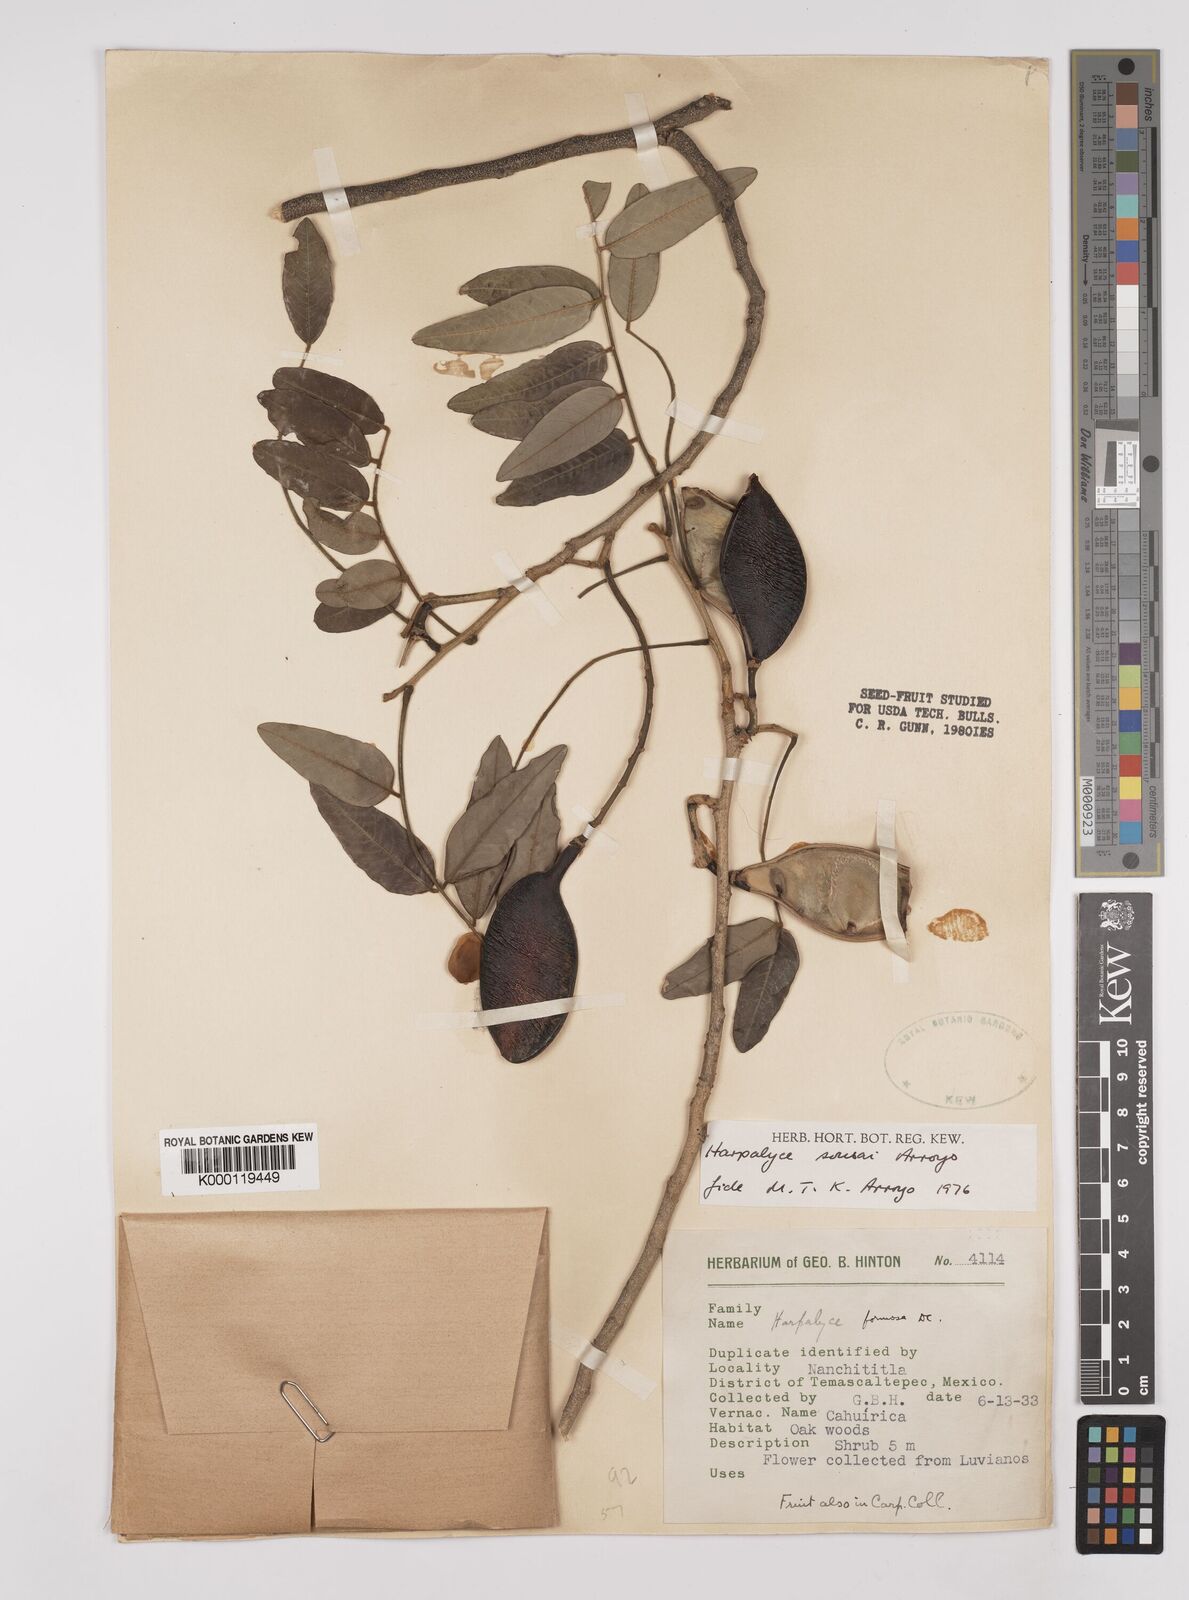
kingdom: Plantae
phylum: Tracheophyta
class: Magnoliopsida
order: Fabales
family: Fabaceae
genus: Harpalyce
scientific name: Harpalyce
